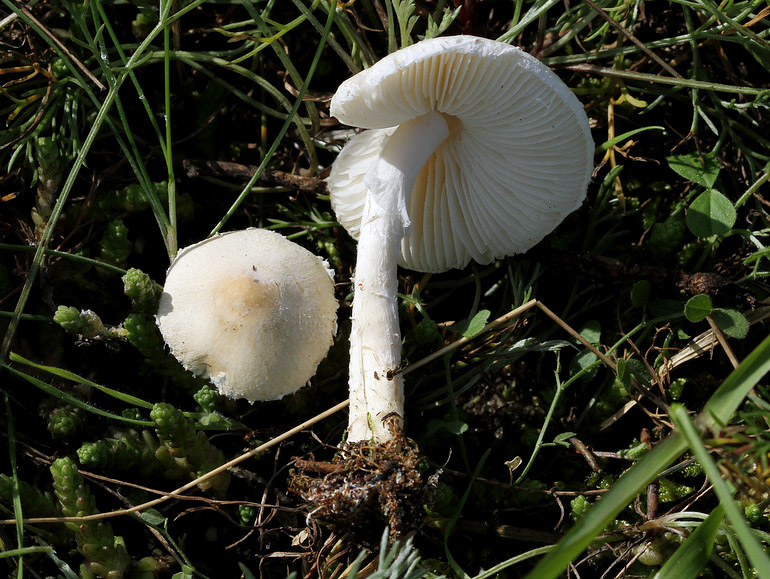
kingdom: Fungi
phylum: Basidiomycota
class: Agaricomycetes
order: Agaricales
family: Agaricaceae
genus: Lepiota
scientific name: Lepiota erminea
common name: hvid parasolhat
